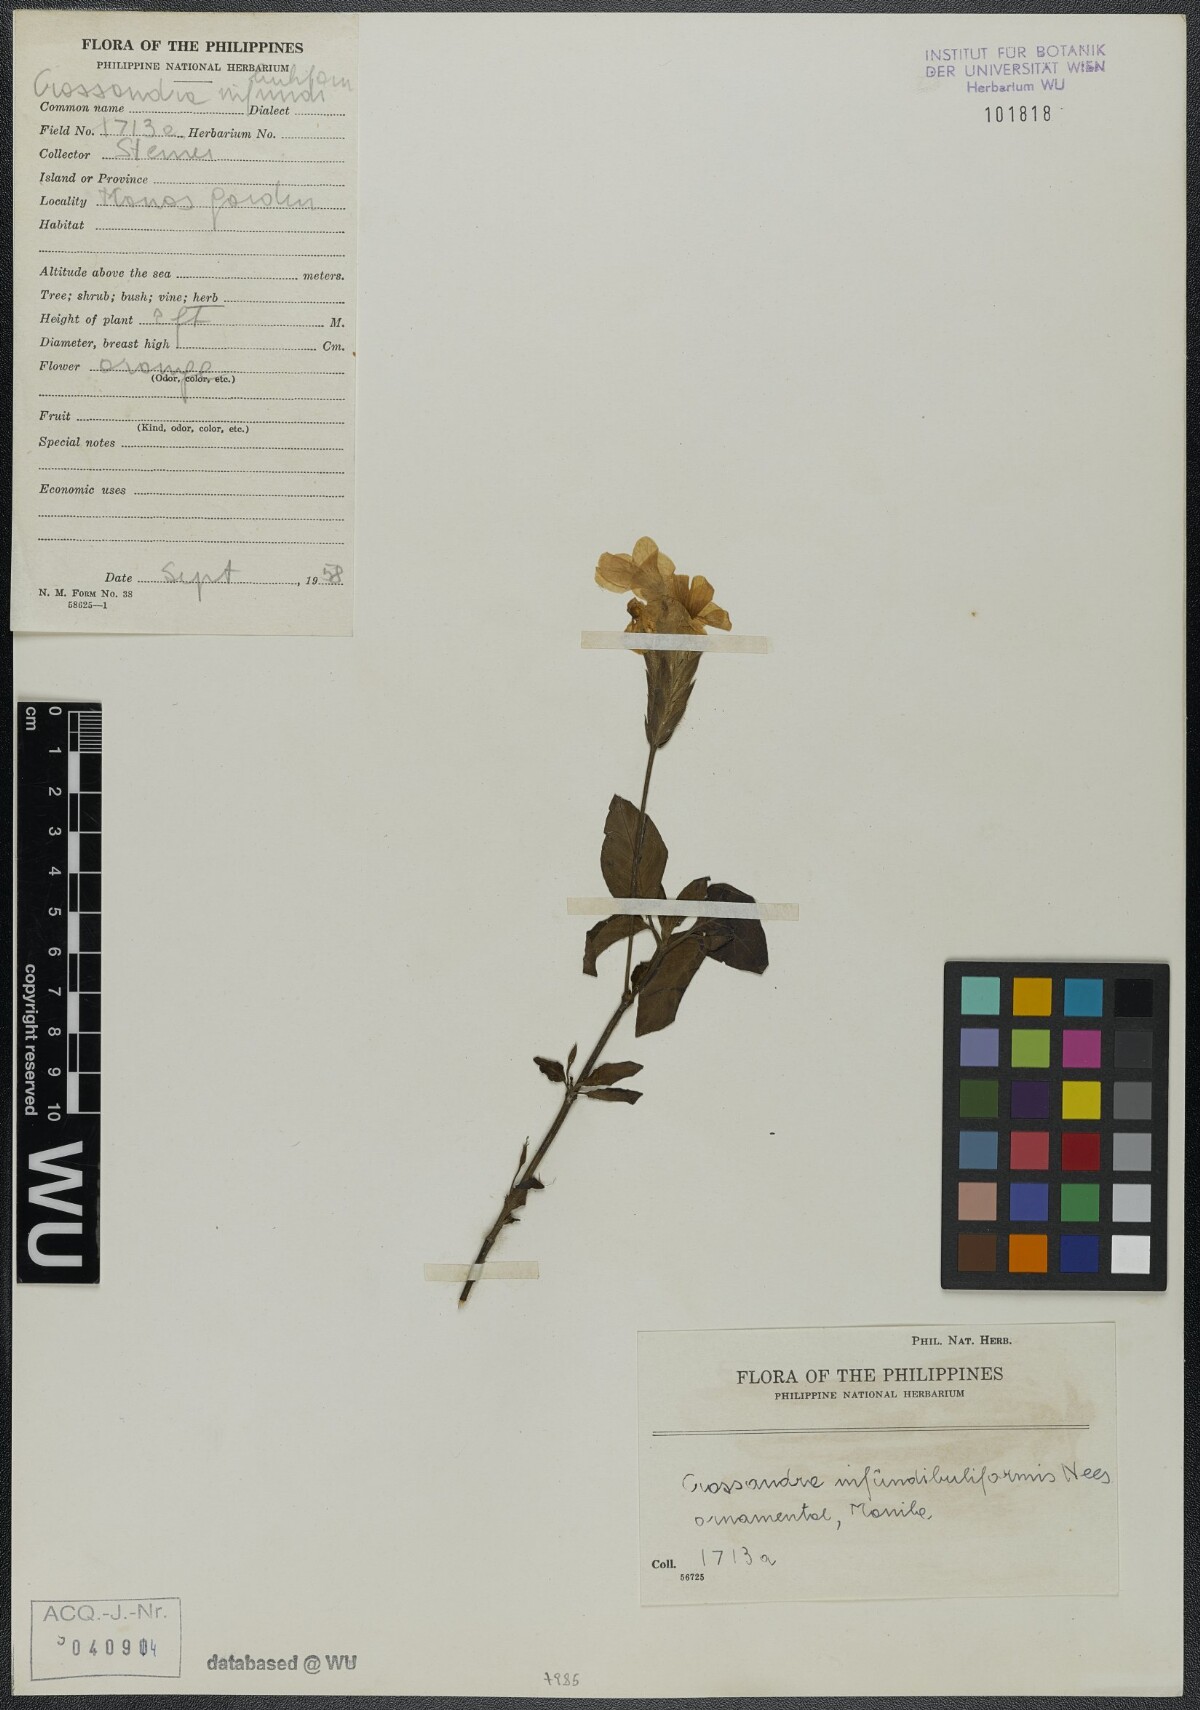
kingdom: Plantae
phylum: Tracheophyta
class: Magnoliopsida
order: Lamiales
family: Acanthaceae
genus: Crossandra
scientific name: Crossandra infundibuliformis
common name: Firecracker-flower
